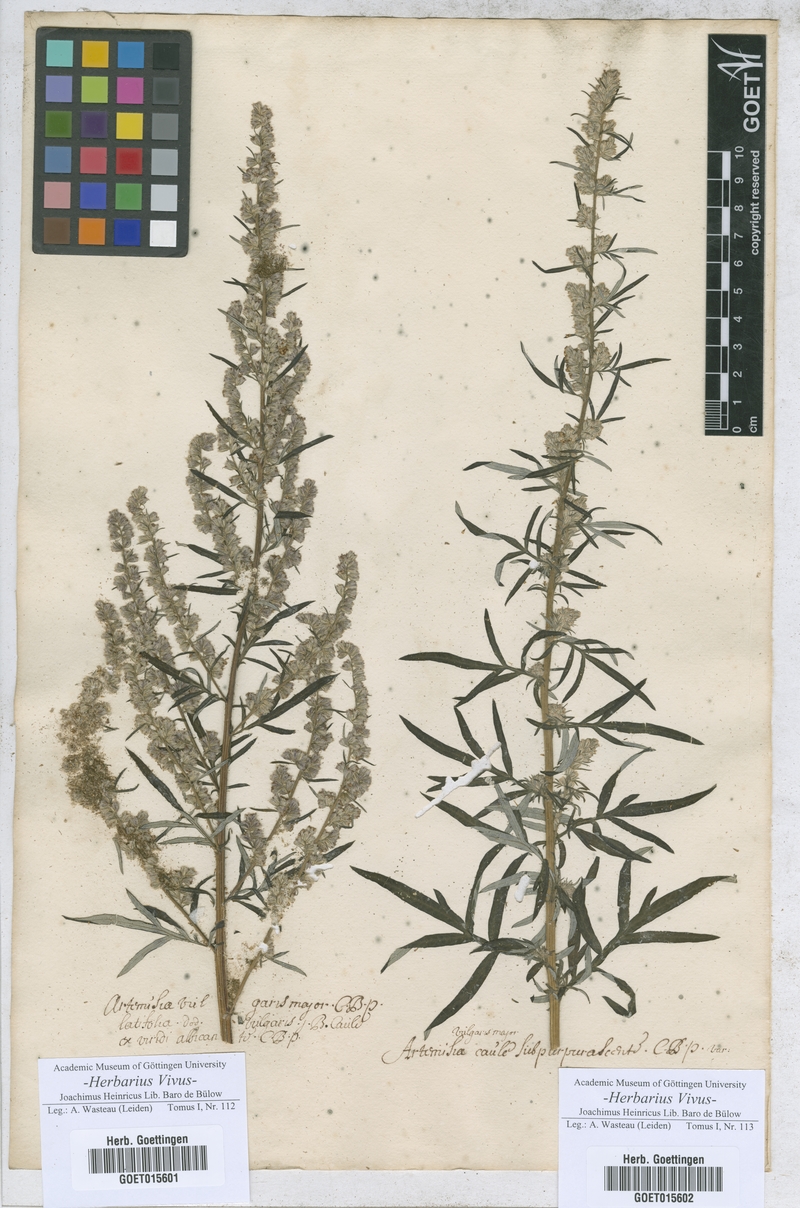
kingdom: Plantae
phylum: Tracheophyta
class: Magnoliopsida
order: Asterales
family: Asteraceae
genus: Artemisia
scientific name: Artemisia vulgaris
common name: Mugwort
